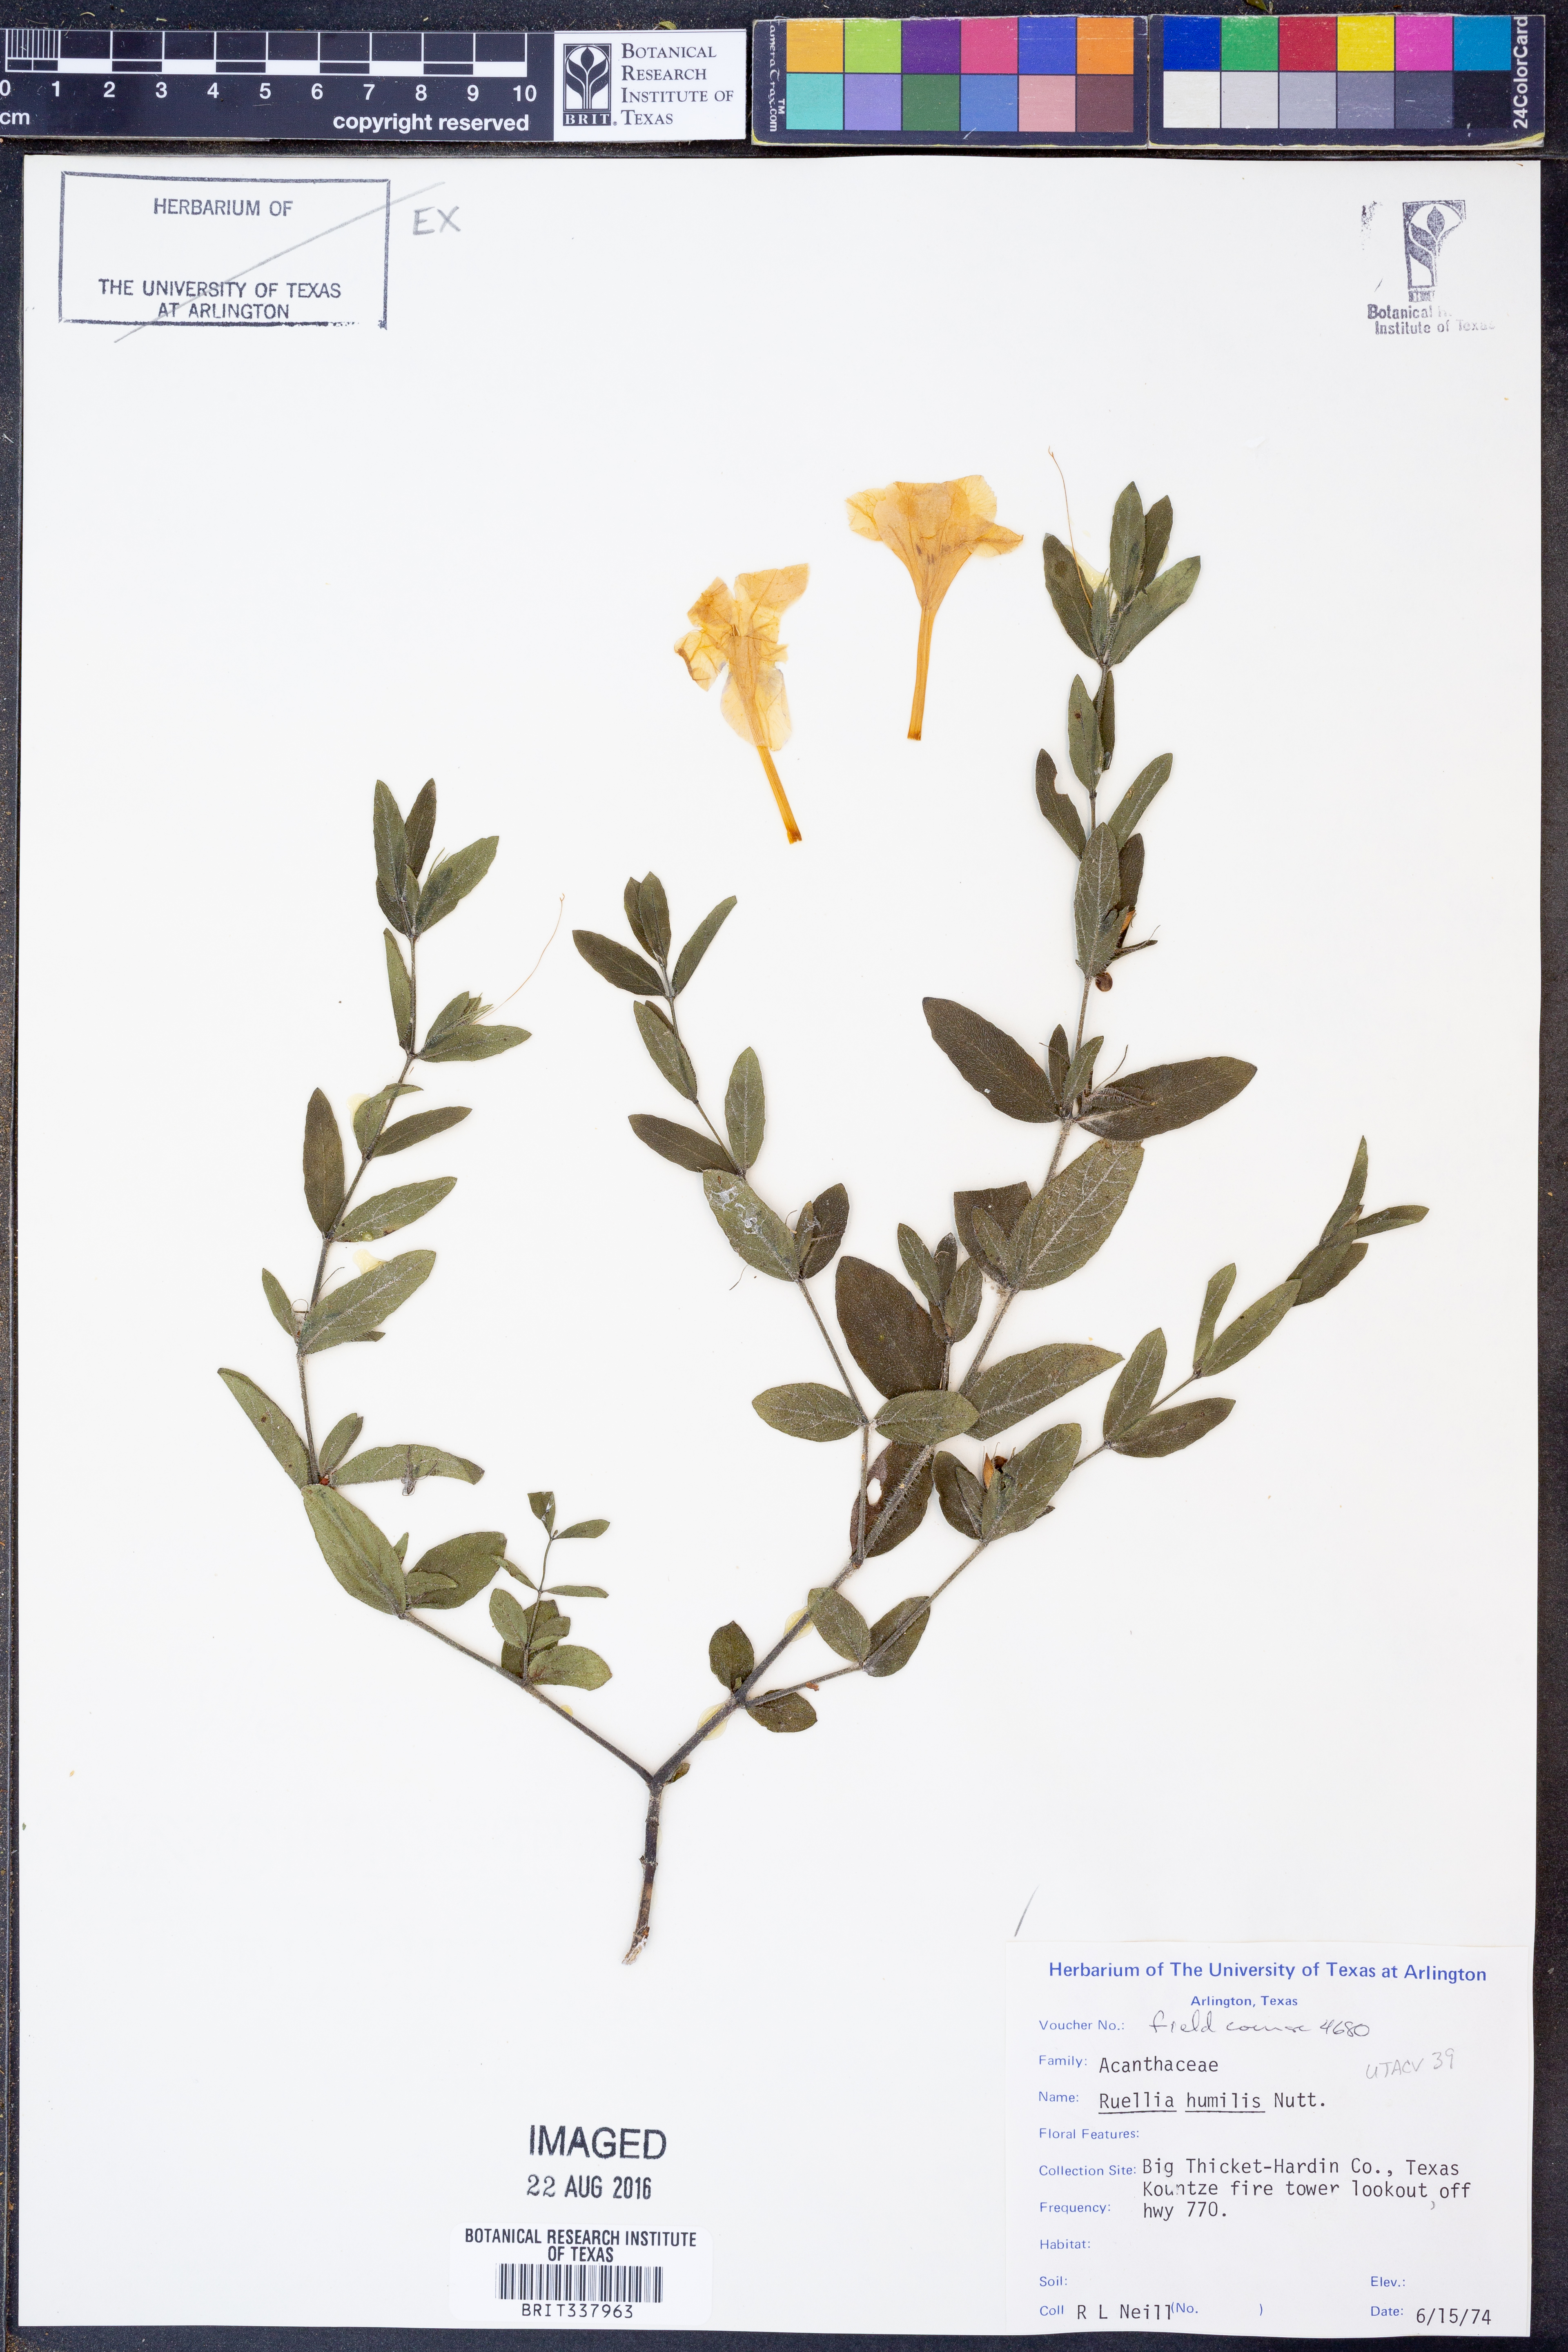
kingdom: Plantae
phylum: Tracheophyta
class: Magnoliopsida
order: Lamiales
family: Acanthaceae
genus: Ruellia
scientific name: Ruellia humilis
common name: Fringe-leaf ruellia
